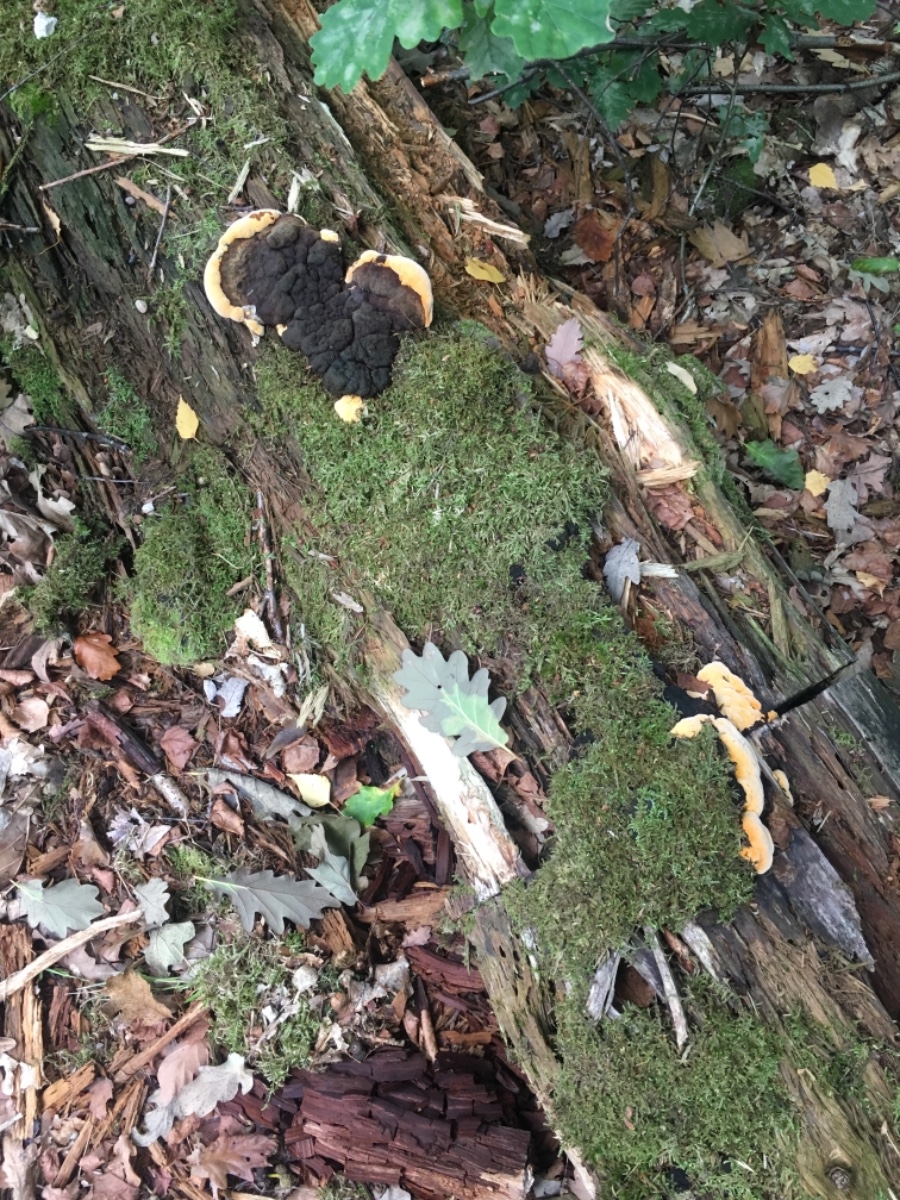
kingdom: Fungi
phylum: Basidiomycota
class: Agaricomycetes
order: Gloeophyllales
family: Gloeophyllaceae
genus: Gloeophyllum
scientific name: Gloeophyllum odoratum
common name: duftende korkhat
